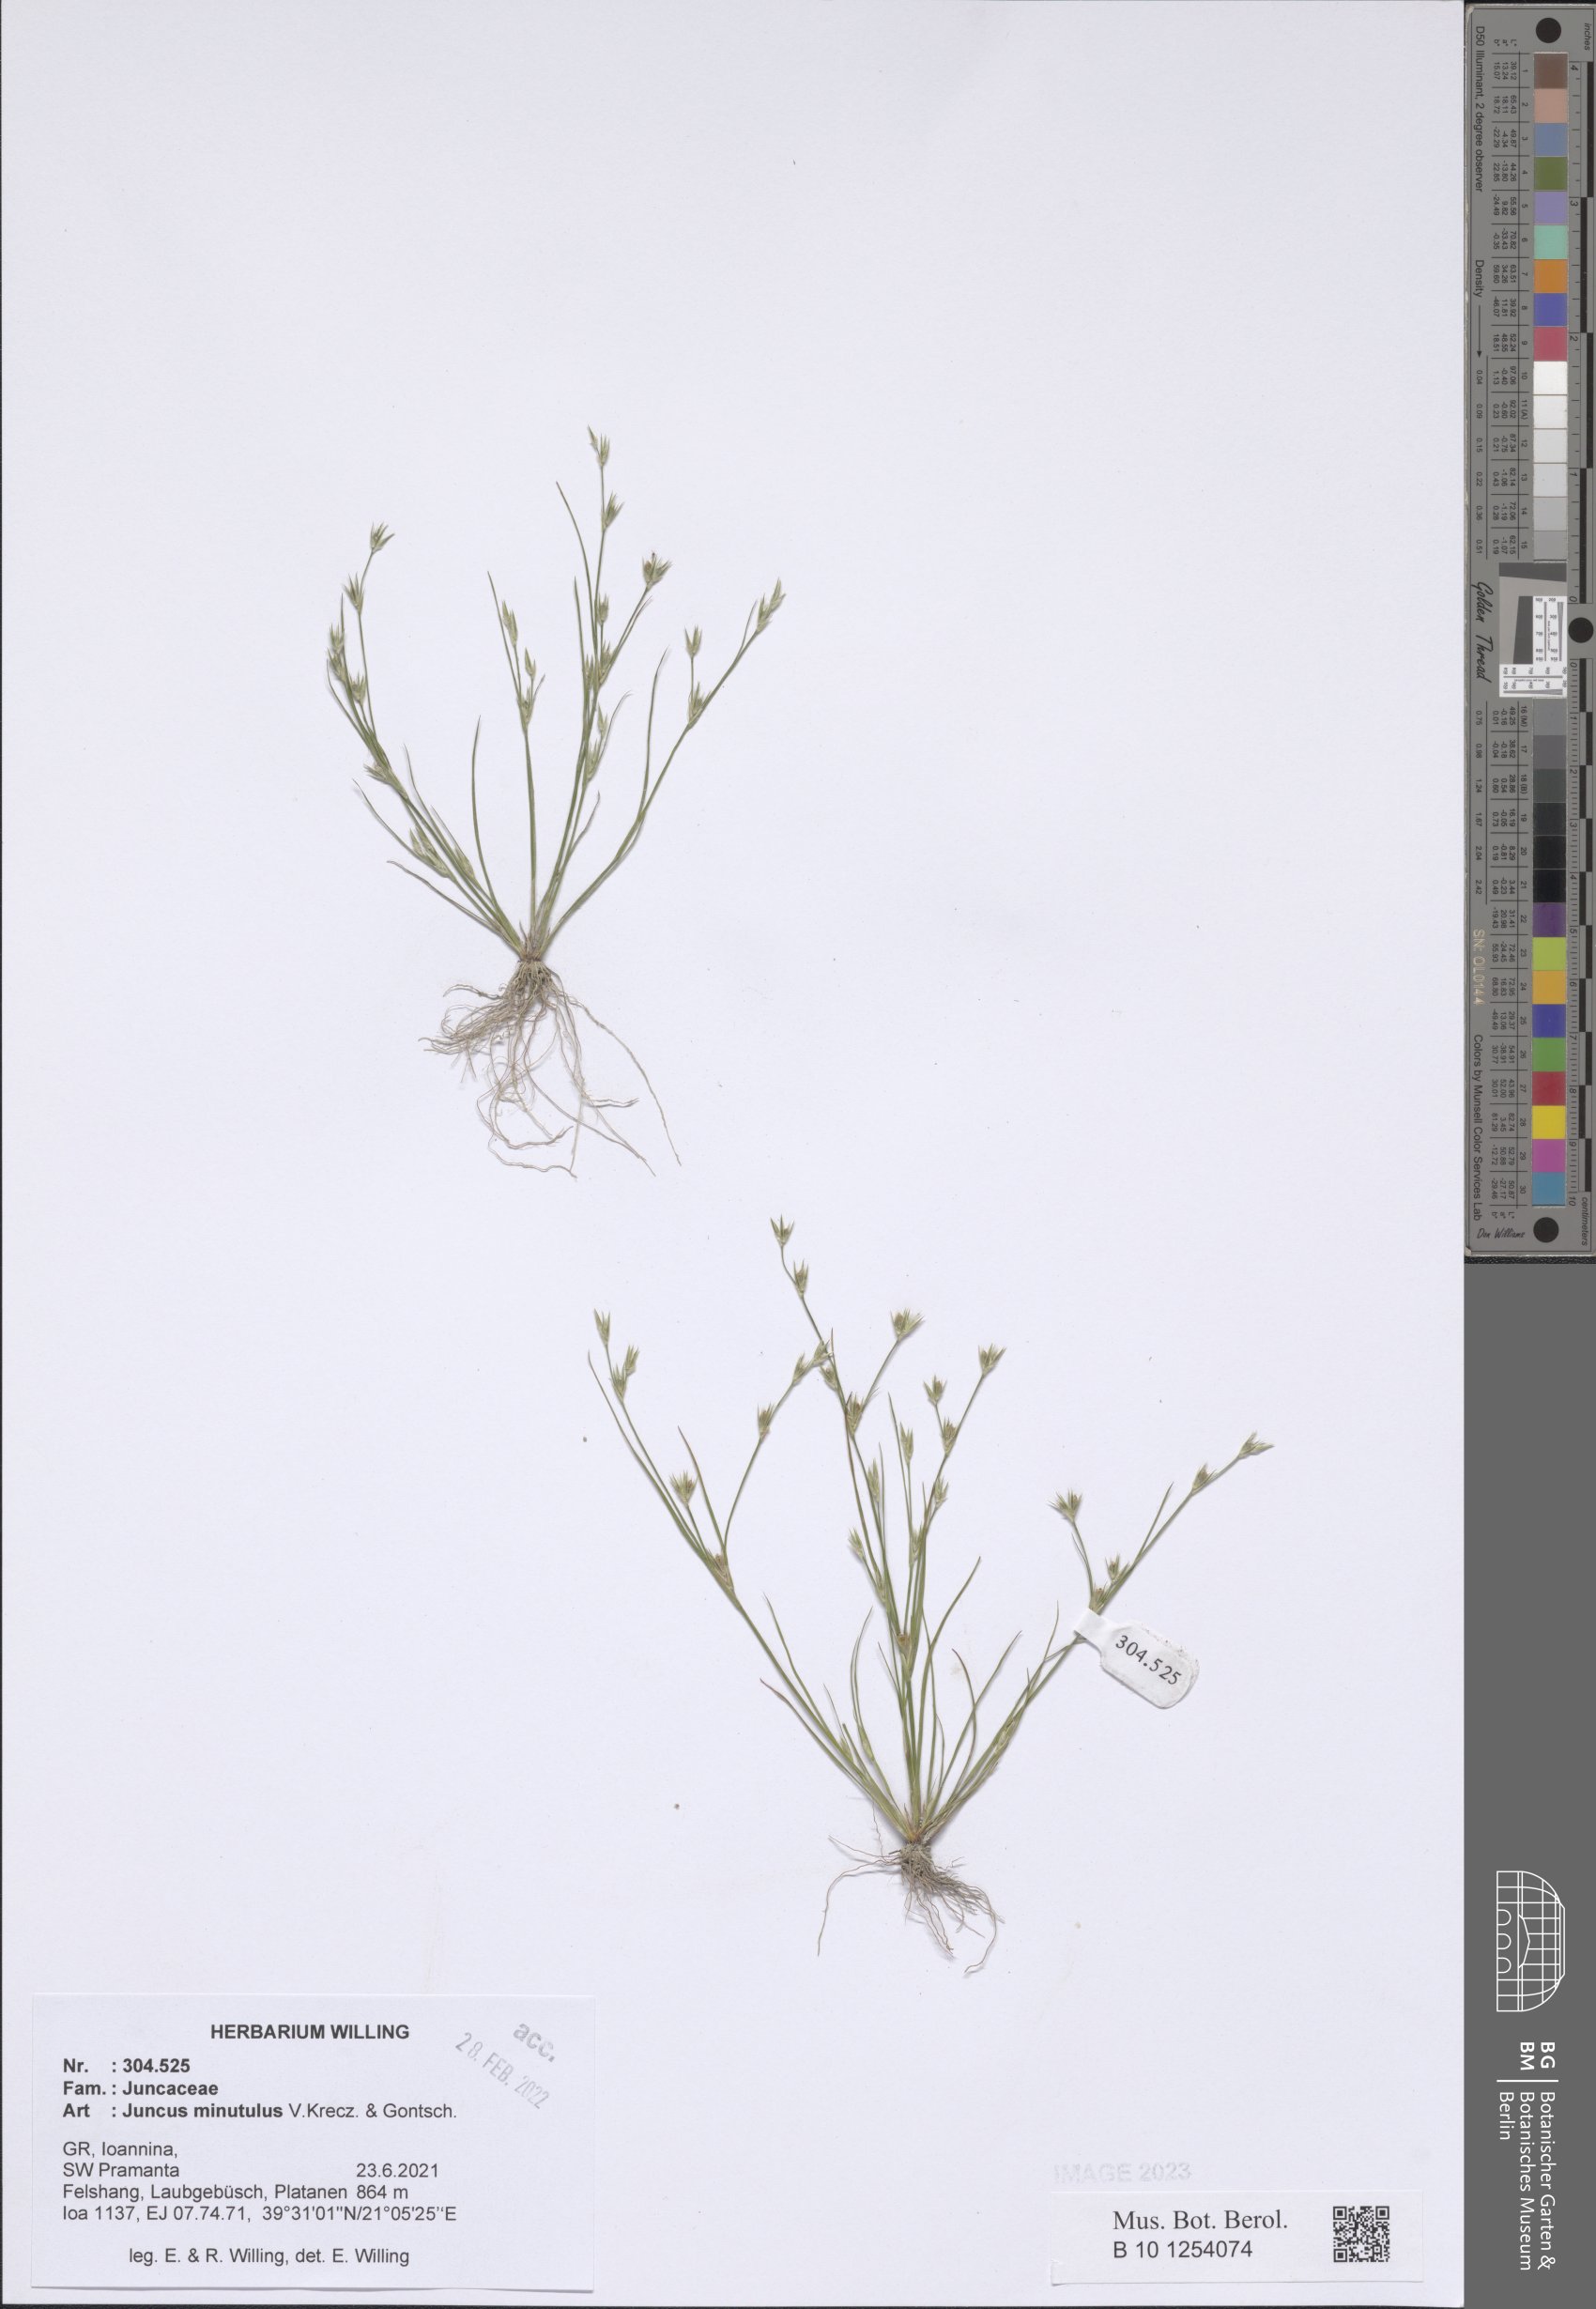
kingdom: Plantae
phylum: Tracheophyta
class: Liliopsida
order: Poales
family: Juncaceae
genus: Juncus
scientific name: Juncus minutulus
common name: Minute rush
